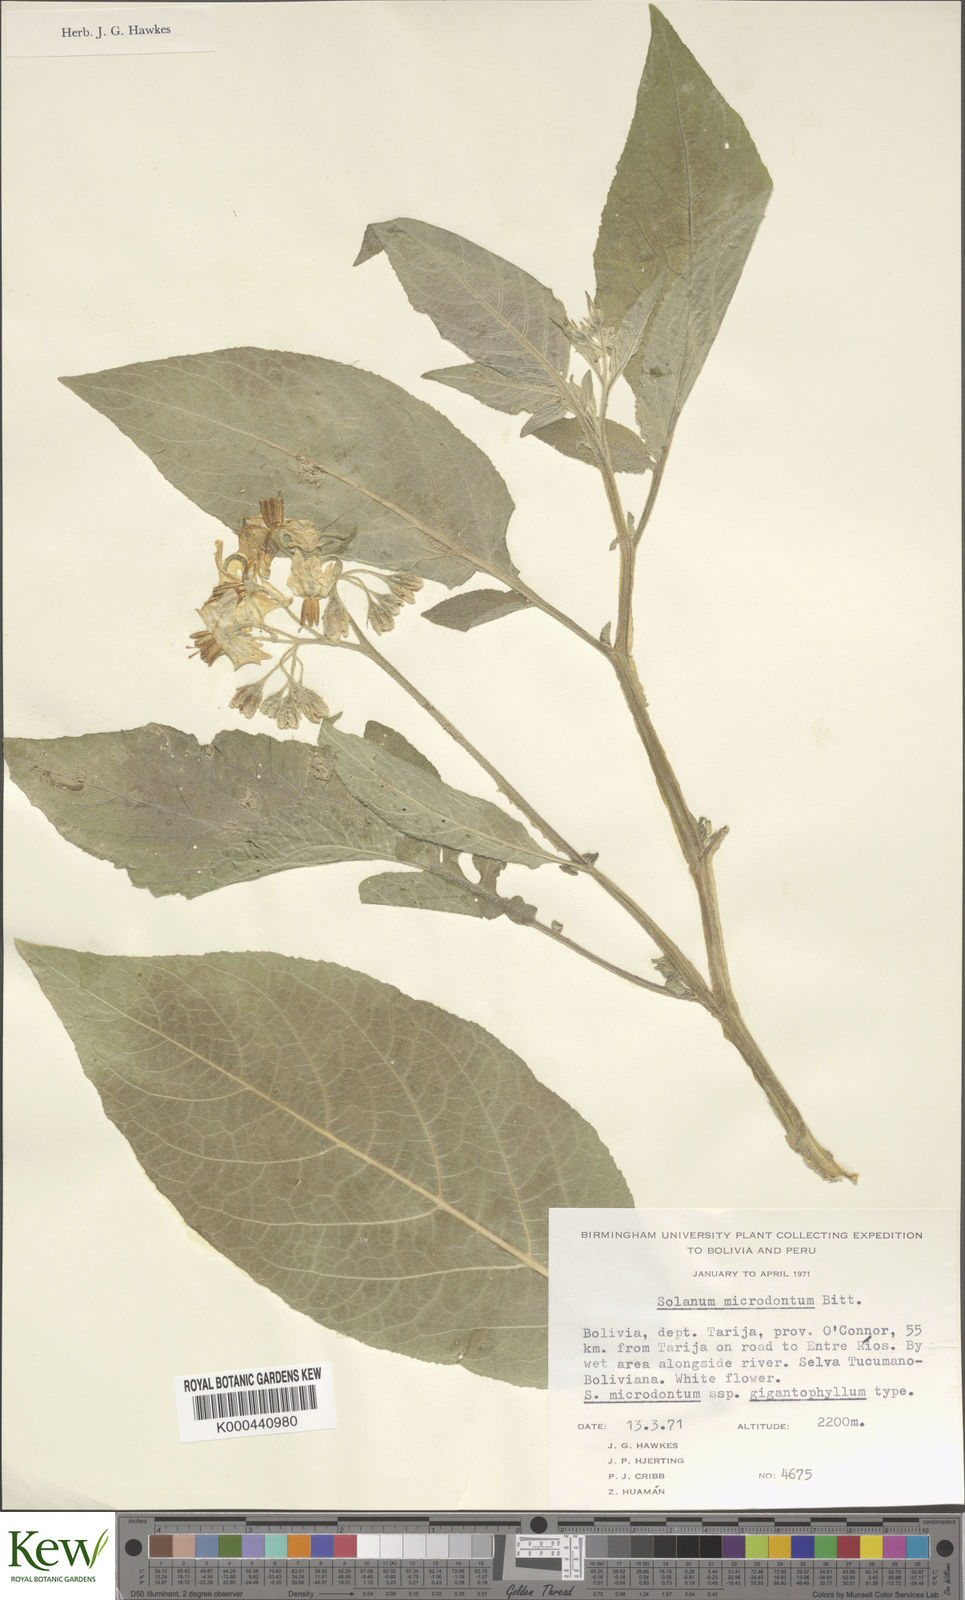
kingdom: Plantae
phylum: Tracheophyta
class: Magnoliopsida
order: Solanales
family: Solanaceae
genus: Solanum
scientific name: Solanum microdontum
